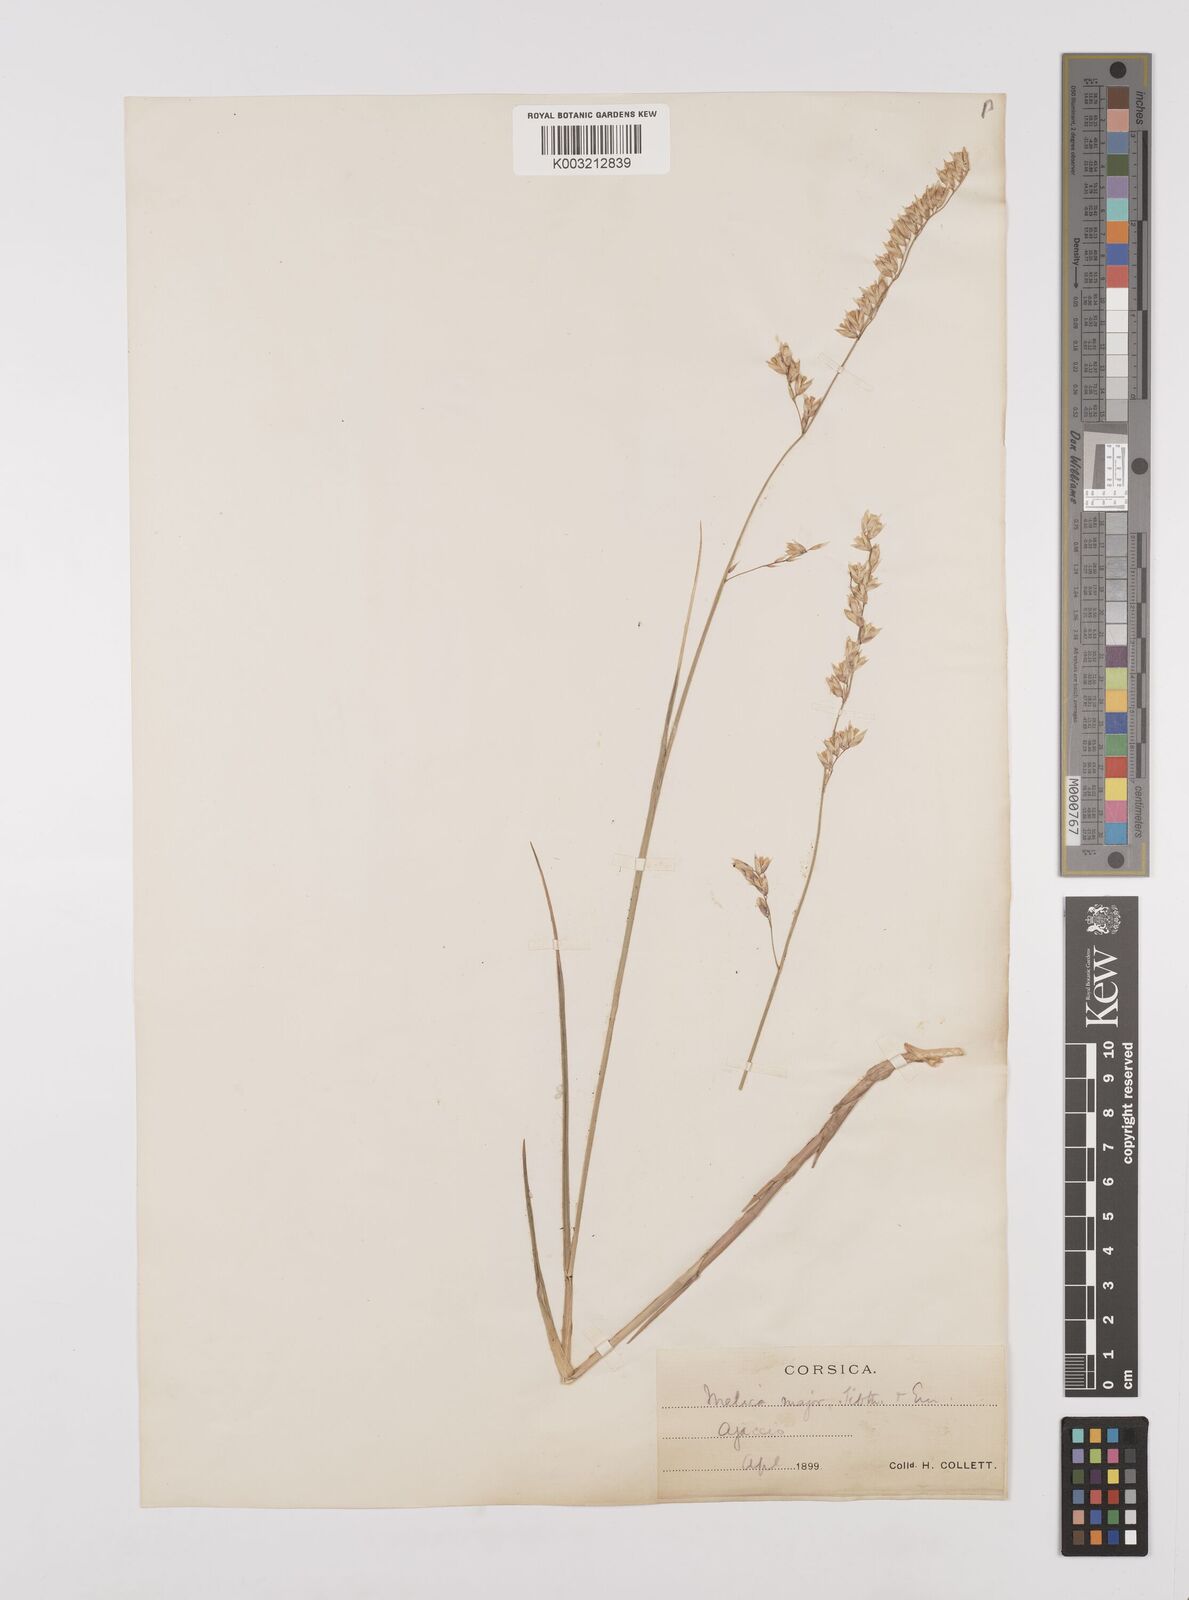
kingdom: Plantae
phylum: Tracheophyta
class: Liliopsida
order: Poales
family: Poaceae
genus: Melica
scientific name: Melica minuta
